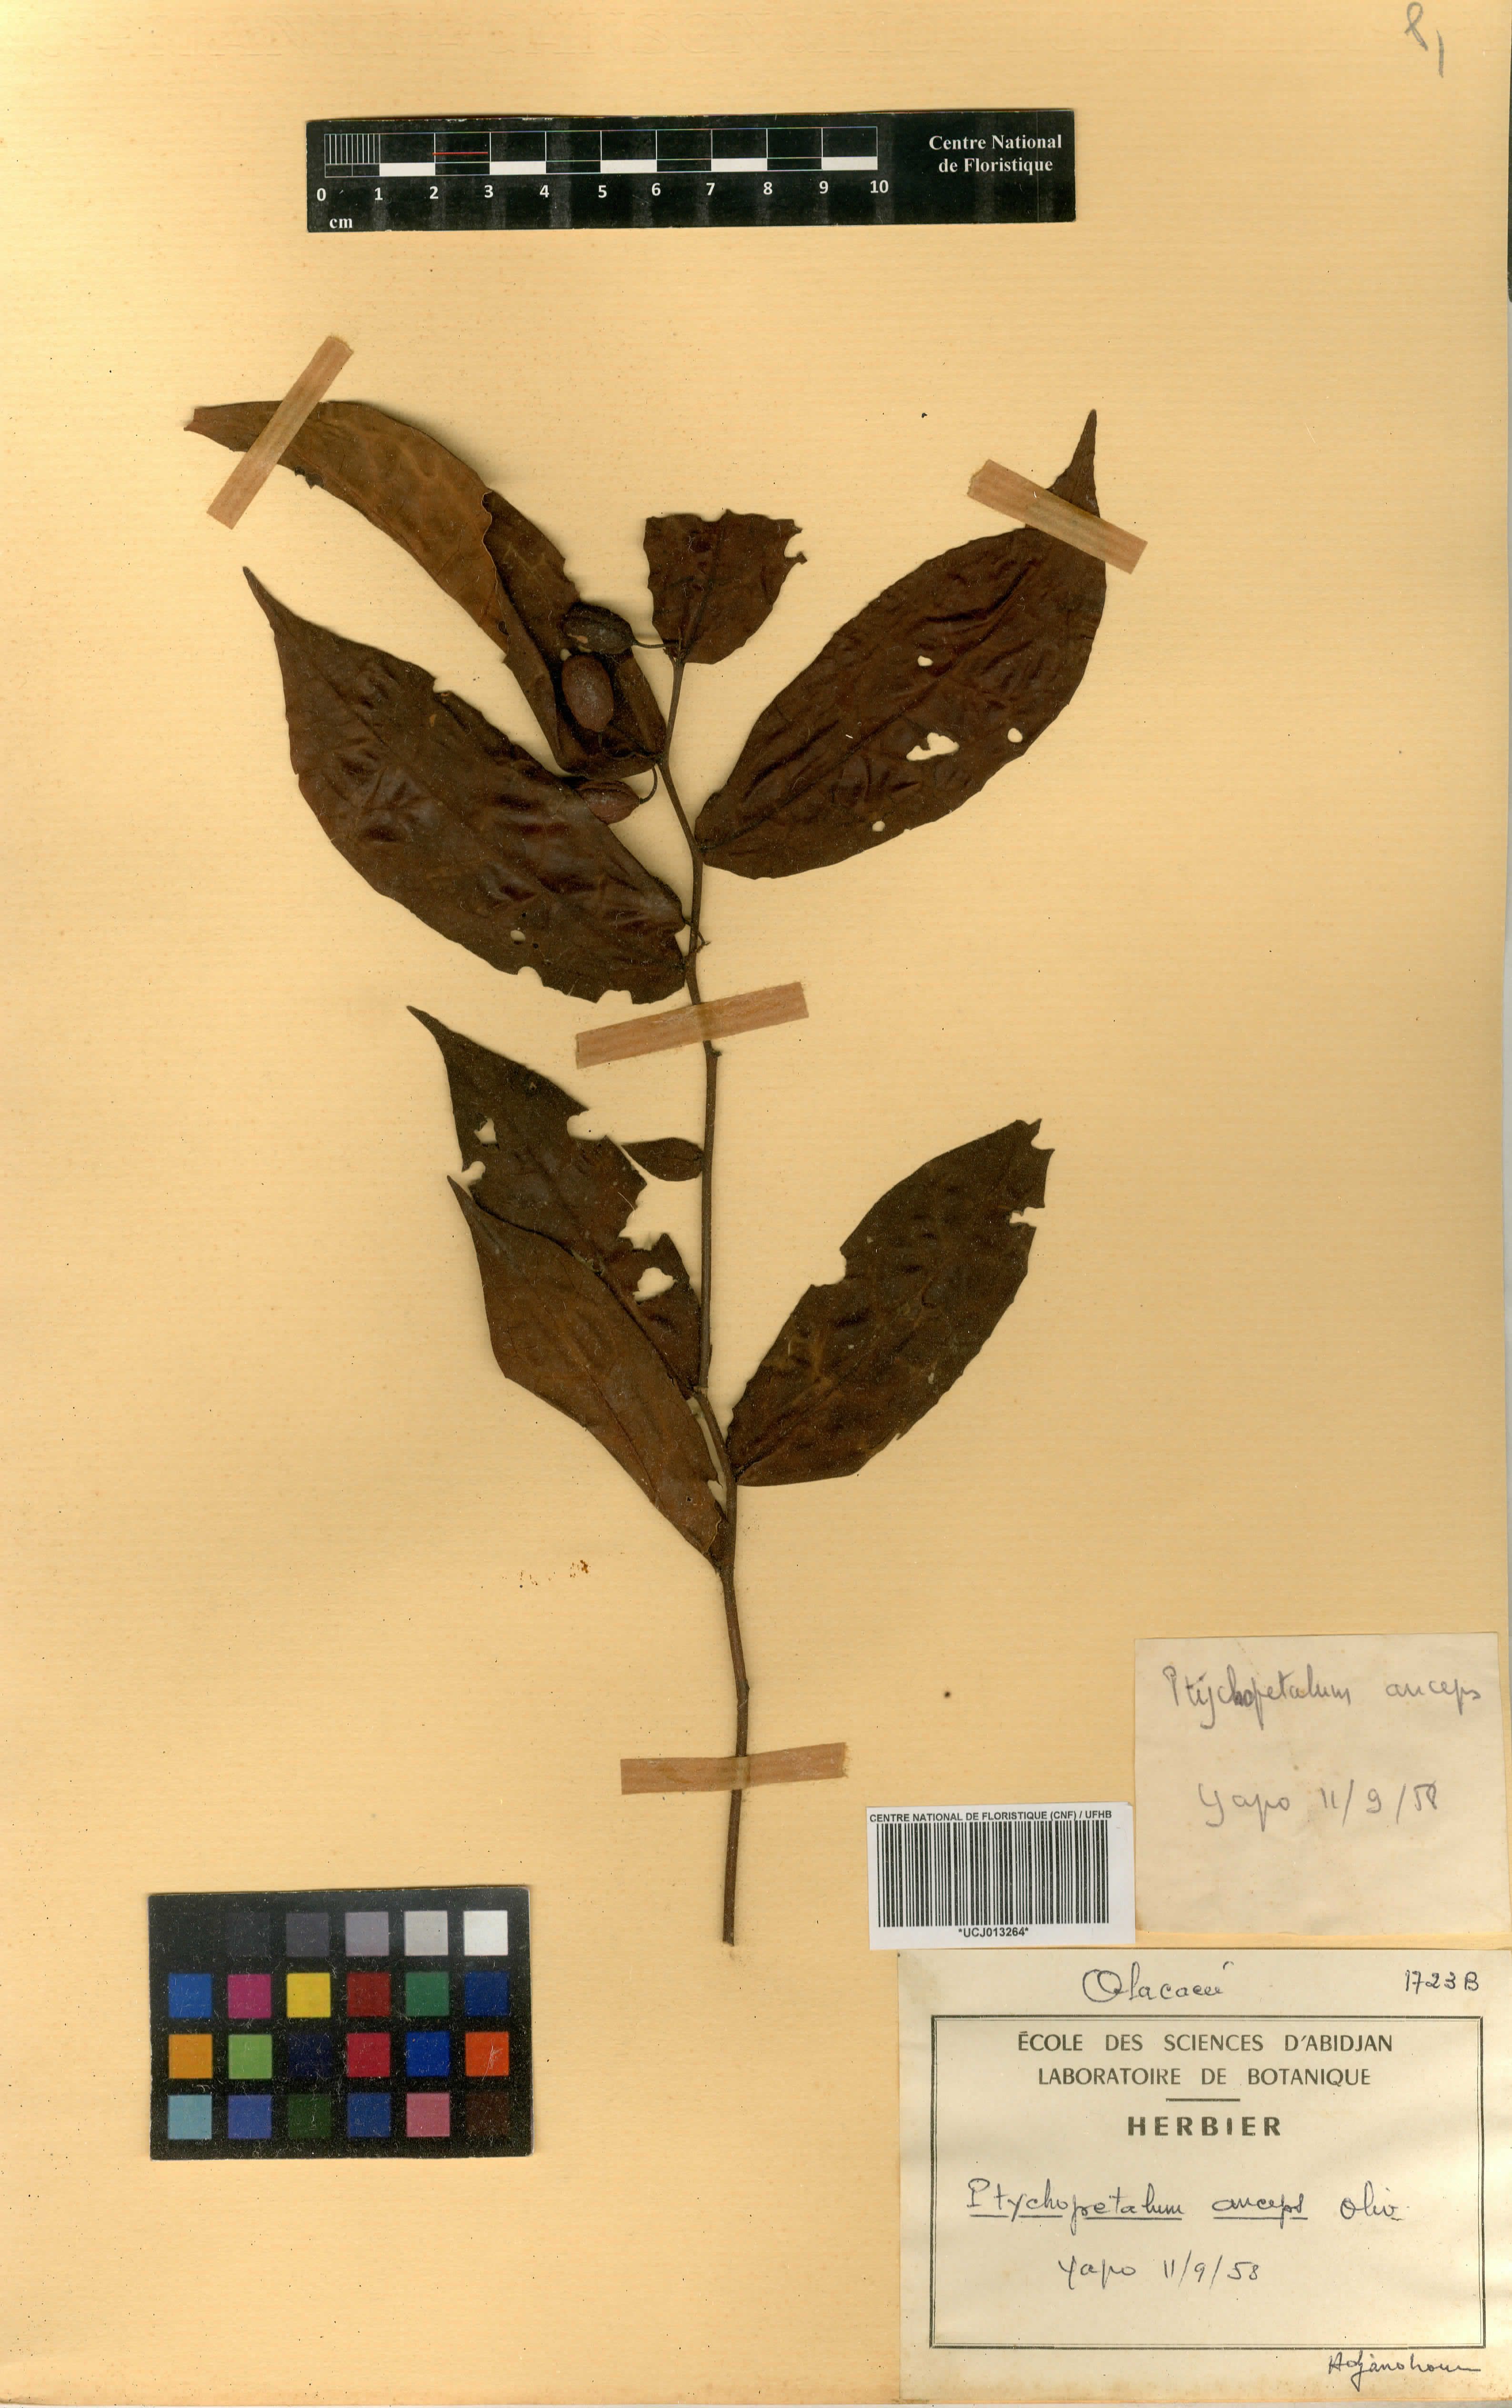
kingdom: Plantae
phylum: Tracheophyta
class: Magnoliopsida
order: Santalales
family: Olacaceae
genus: Ptychopetalum
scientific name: Ptychopetalum anceps
